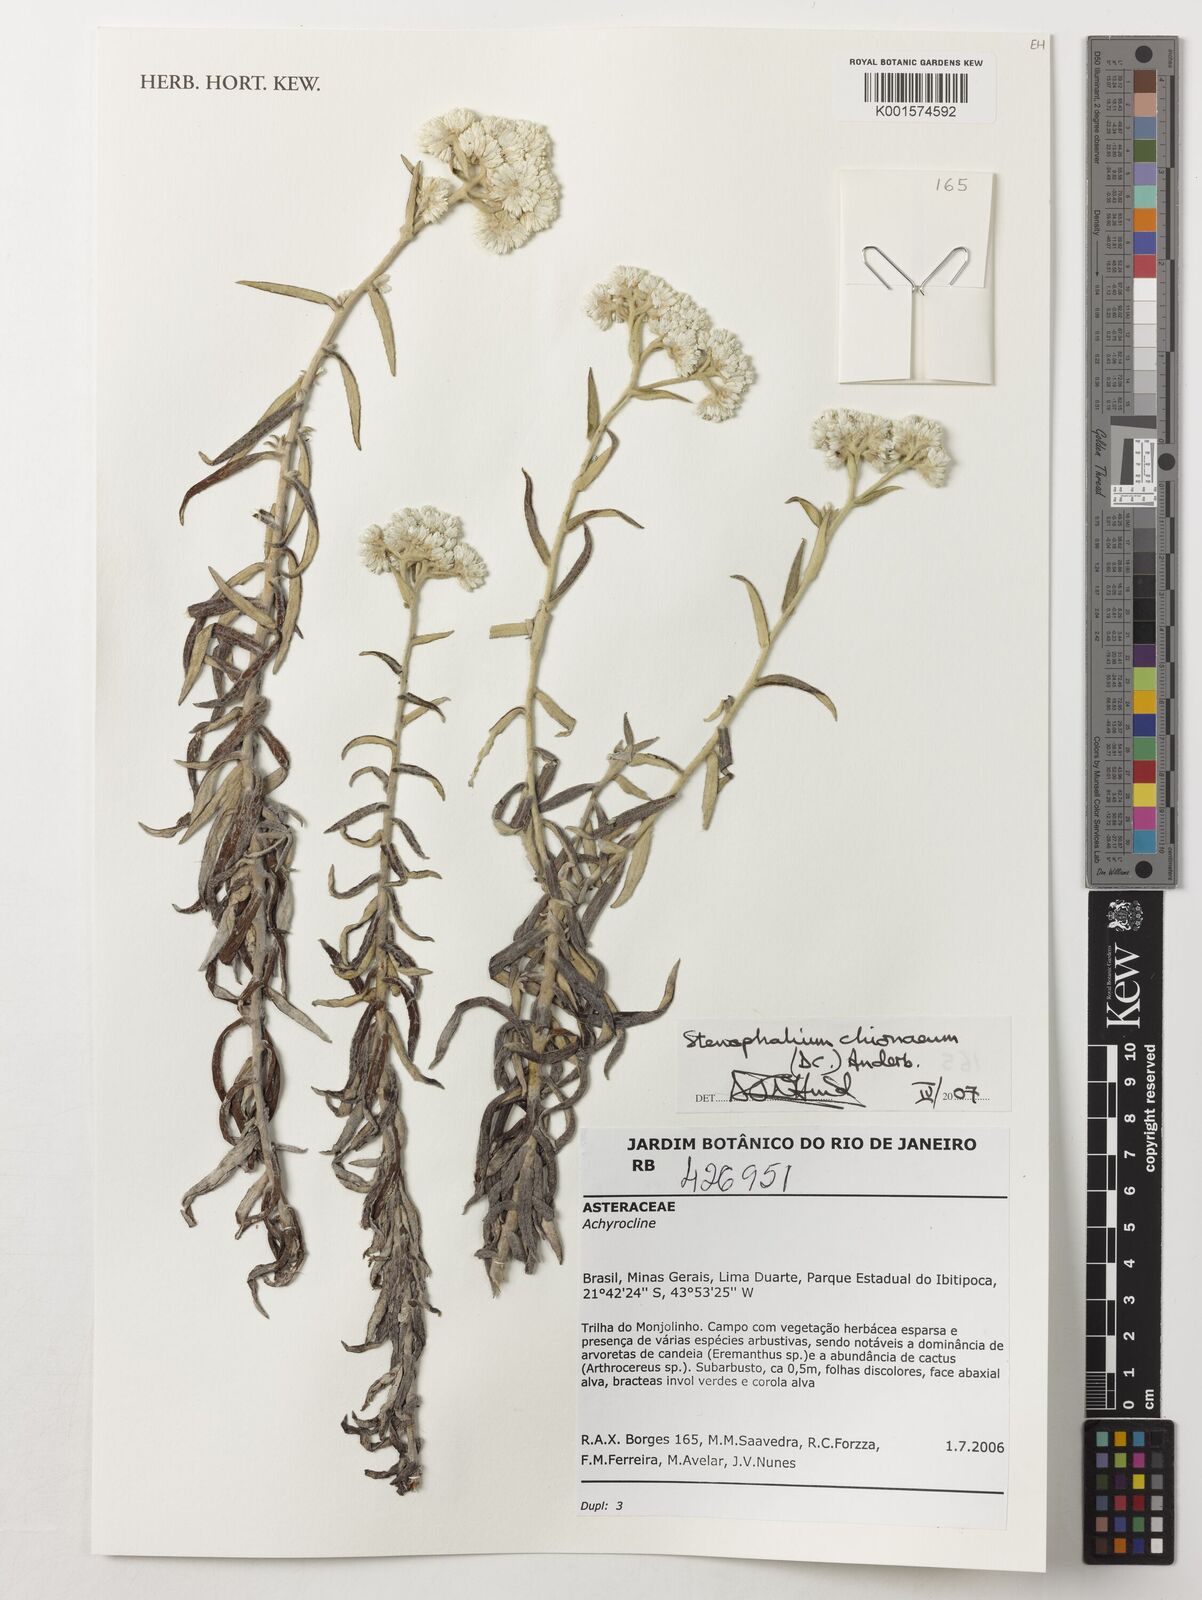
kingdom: Plantae
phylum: Tracheophyta
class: Magnoliopsida
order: Asterales
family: Asteraceae
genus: Achyrocline
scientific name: Achyrocline chionaea
